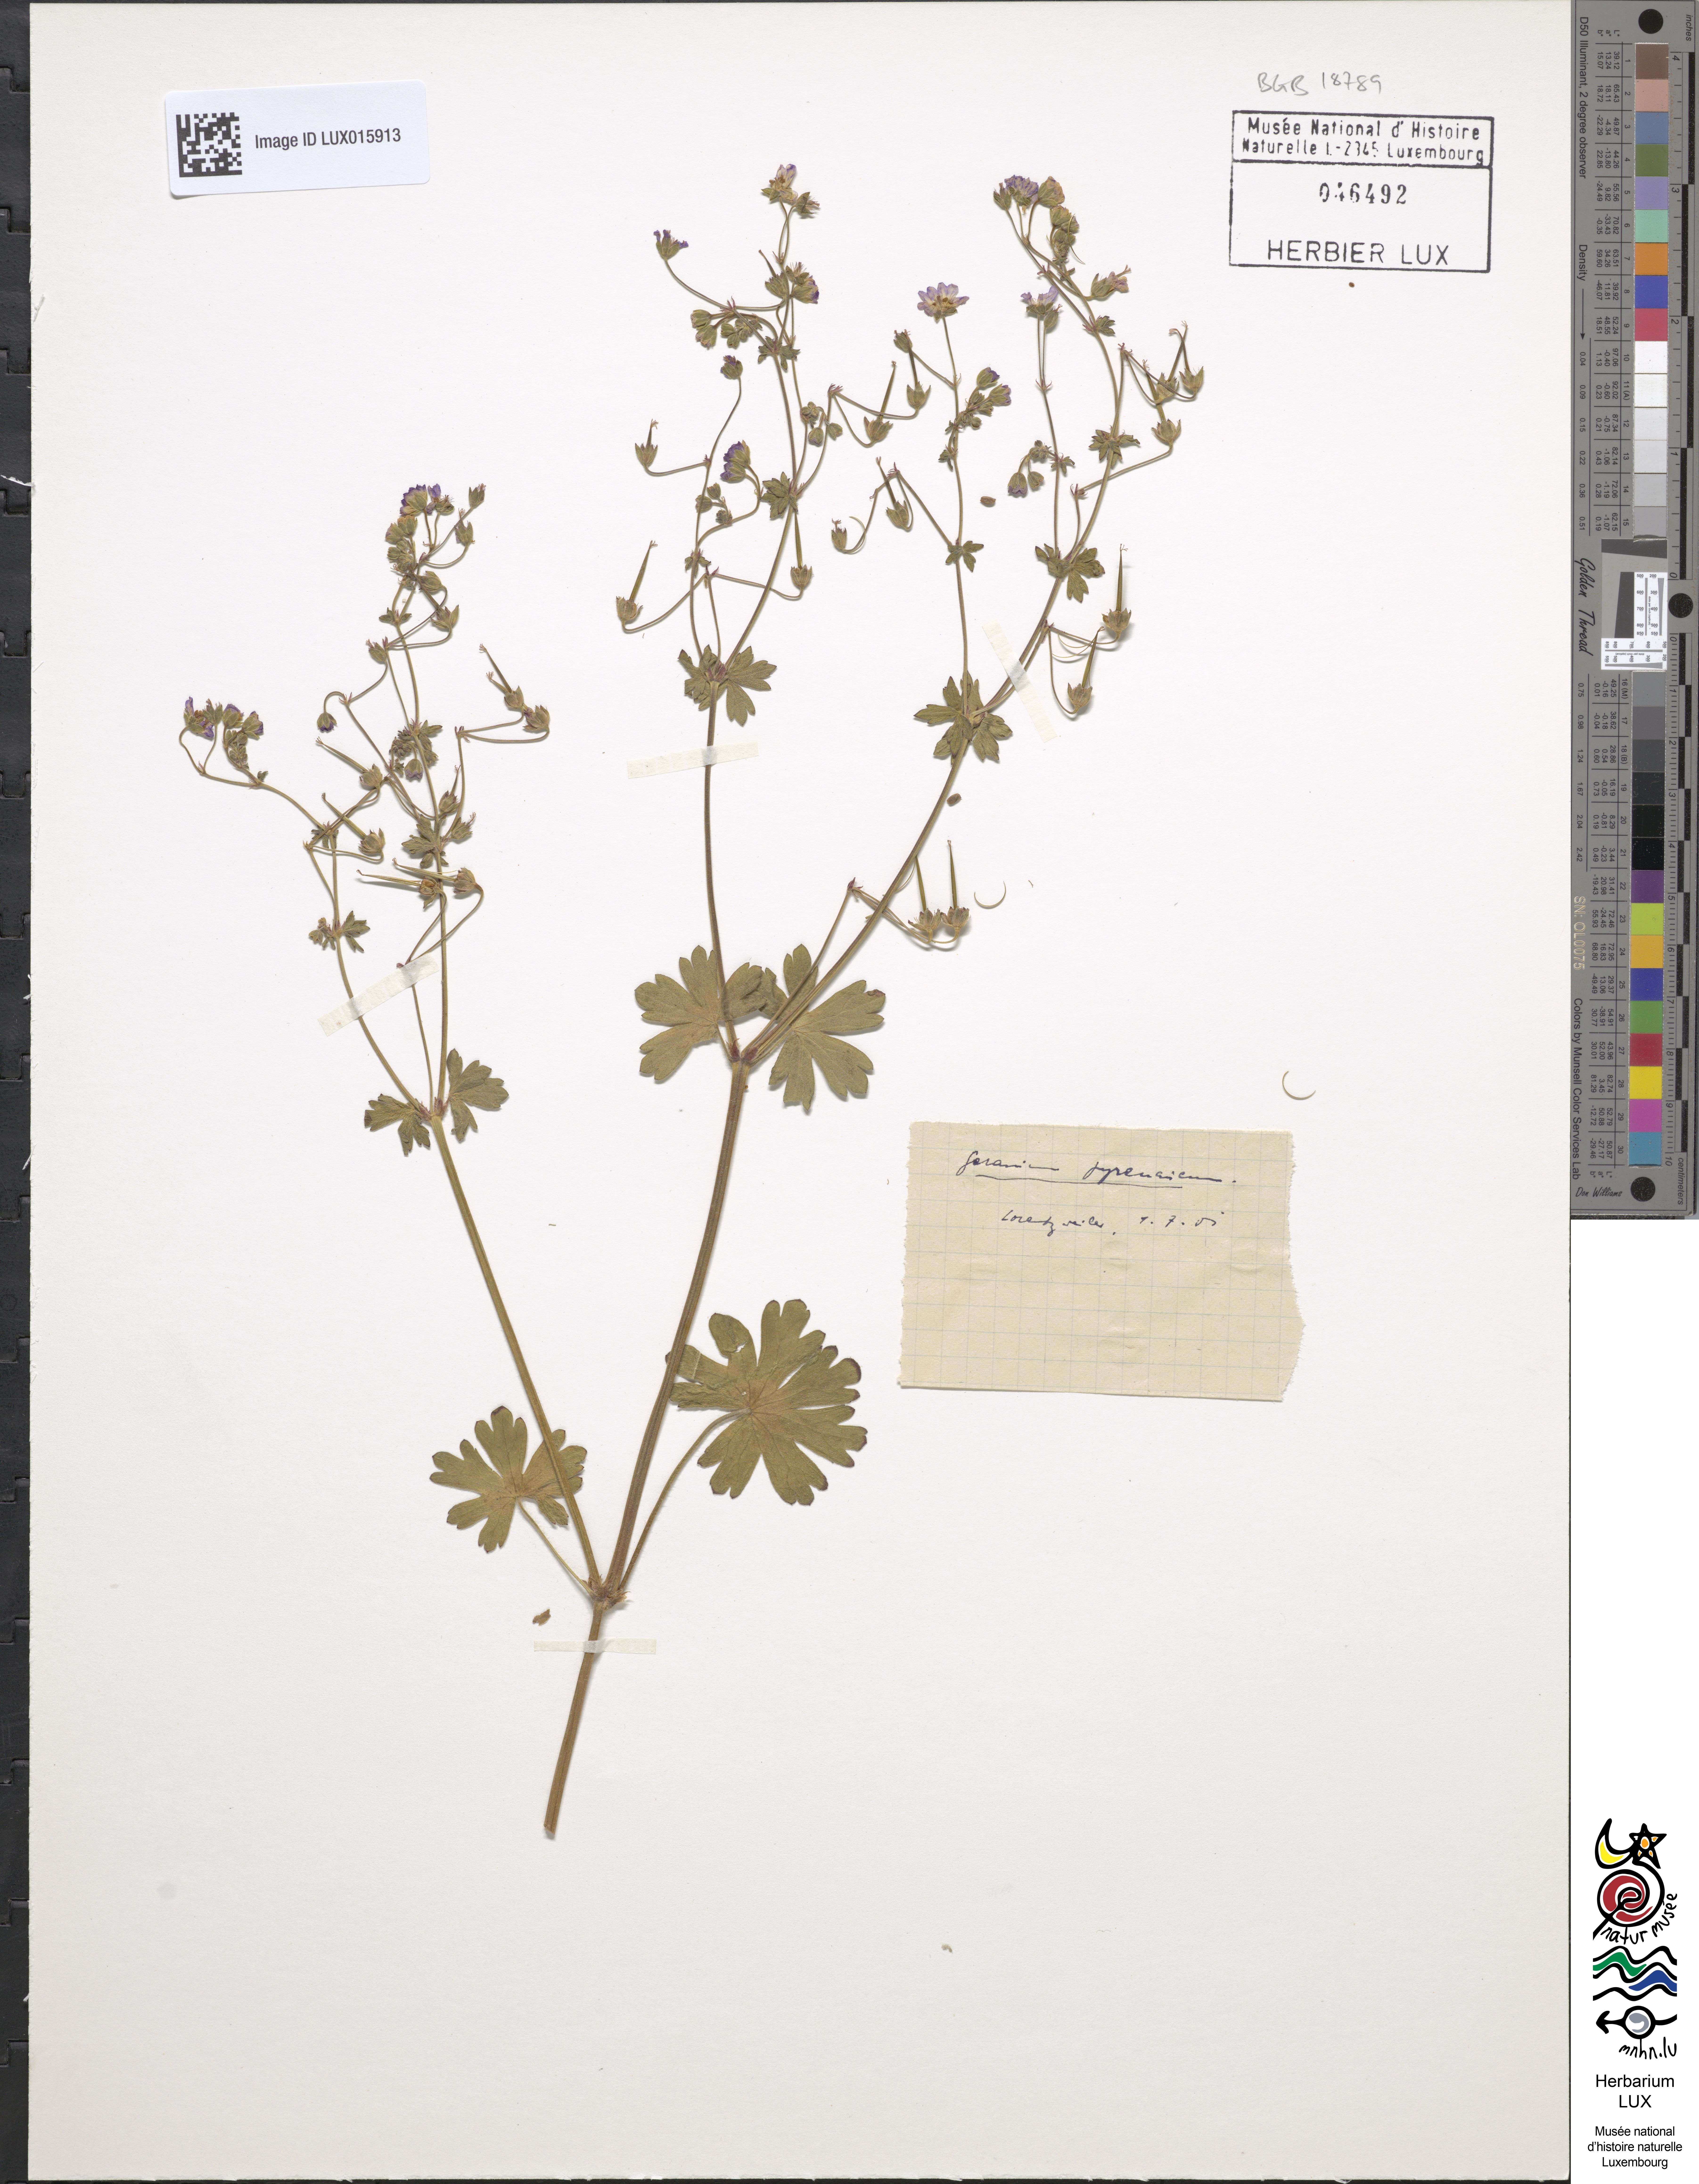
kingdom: Plantae
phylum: Tracheophyta
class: Magnoliopsida
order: Geraniales
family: Geraniaceae
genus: Geranium
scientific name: Geranium pyrenaicum
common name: Hedgerow crane's-bill
